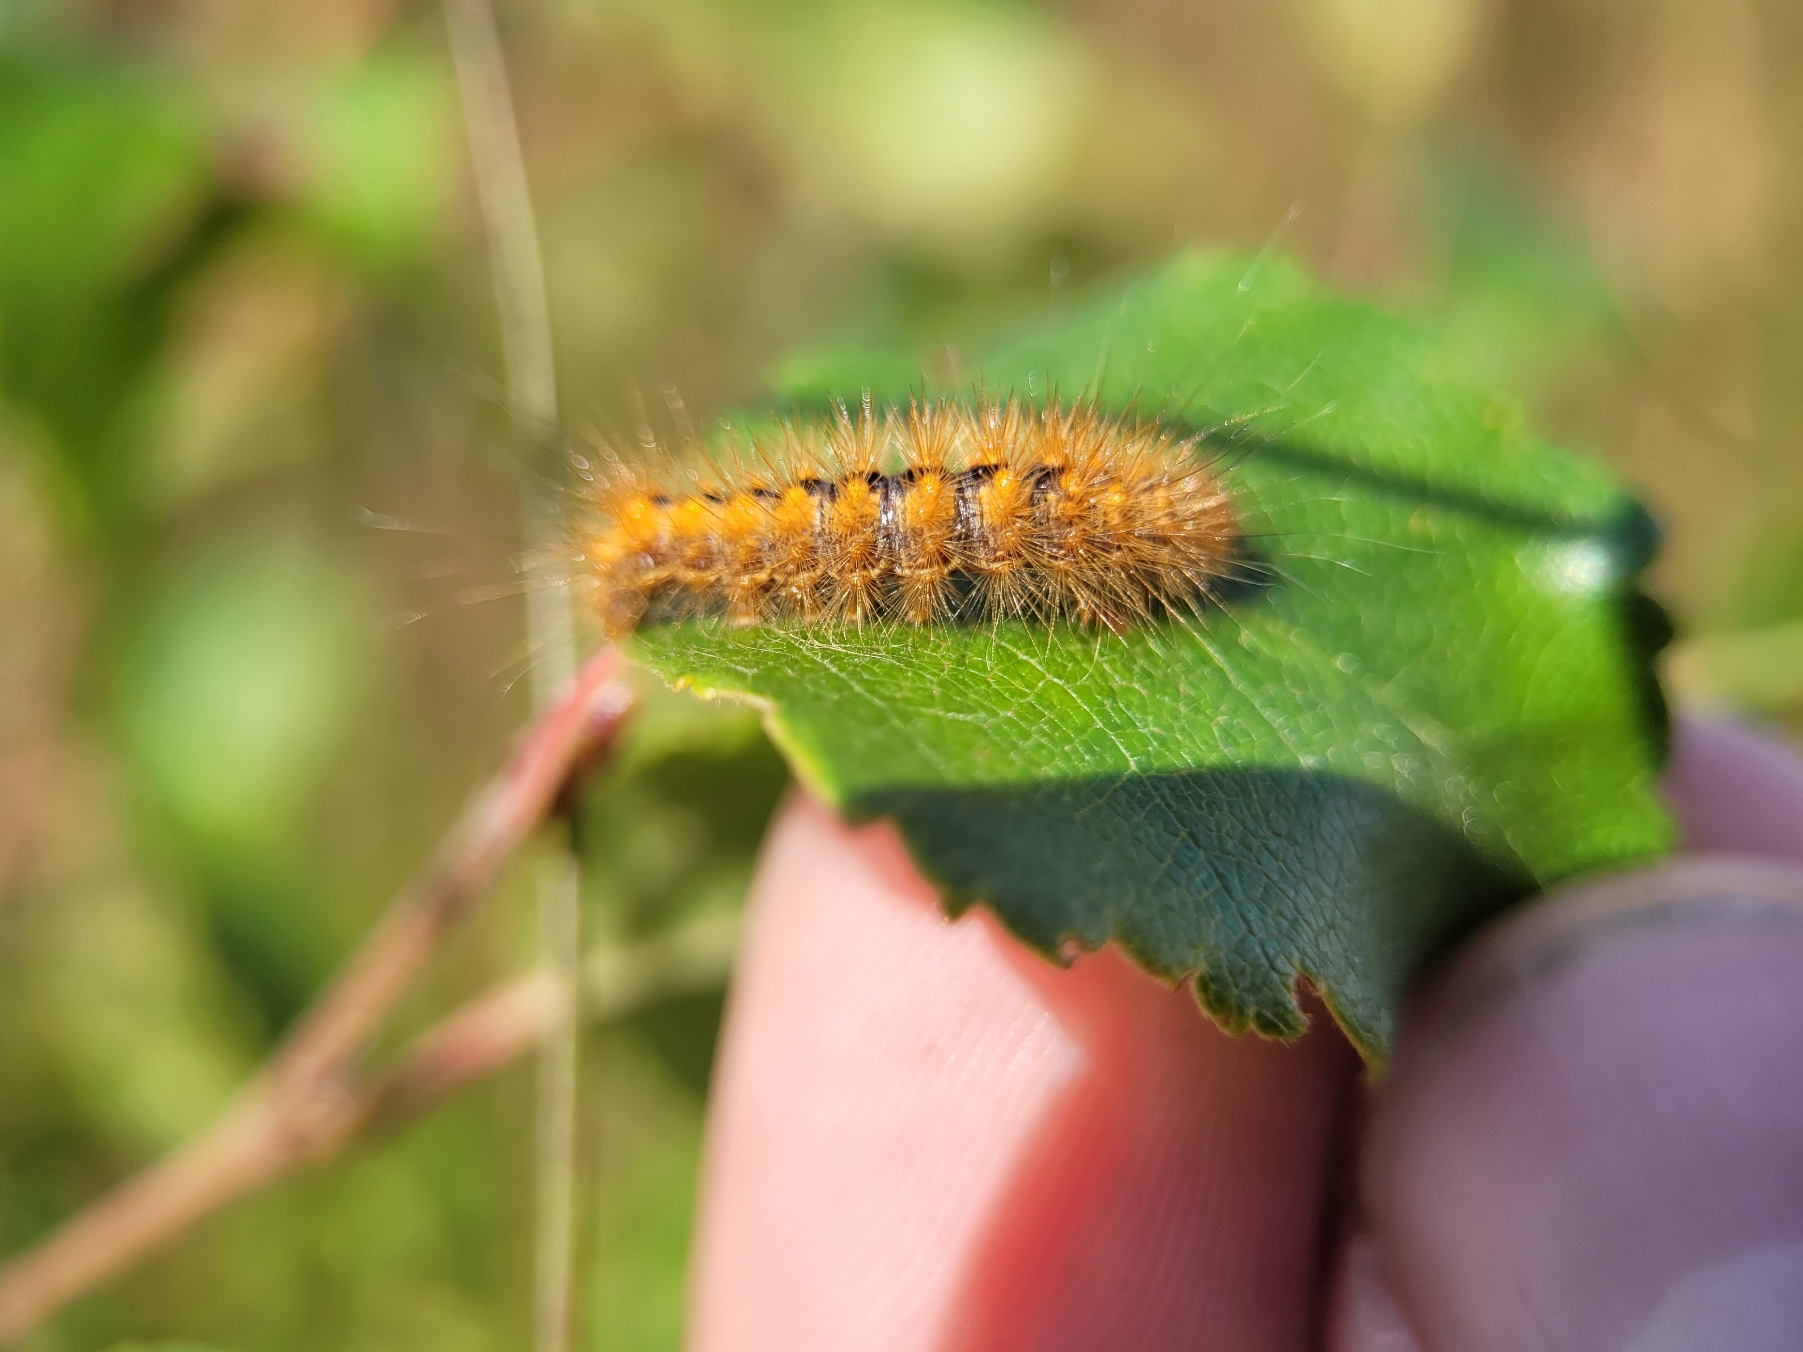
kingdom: Animalia
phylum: Arthropoda
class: Insecta
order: Lepidoptera
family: Noctuidae
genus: Acronicta
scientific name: Acronicta auricoma
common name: Guldlok-pelsugle
